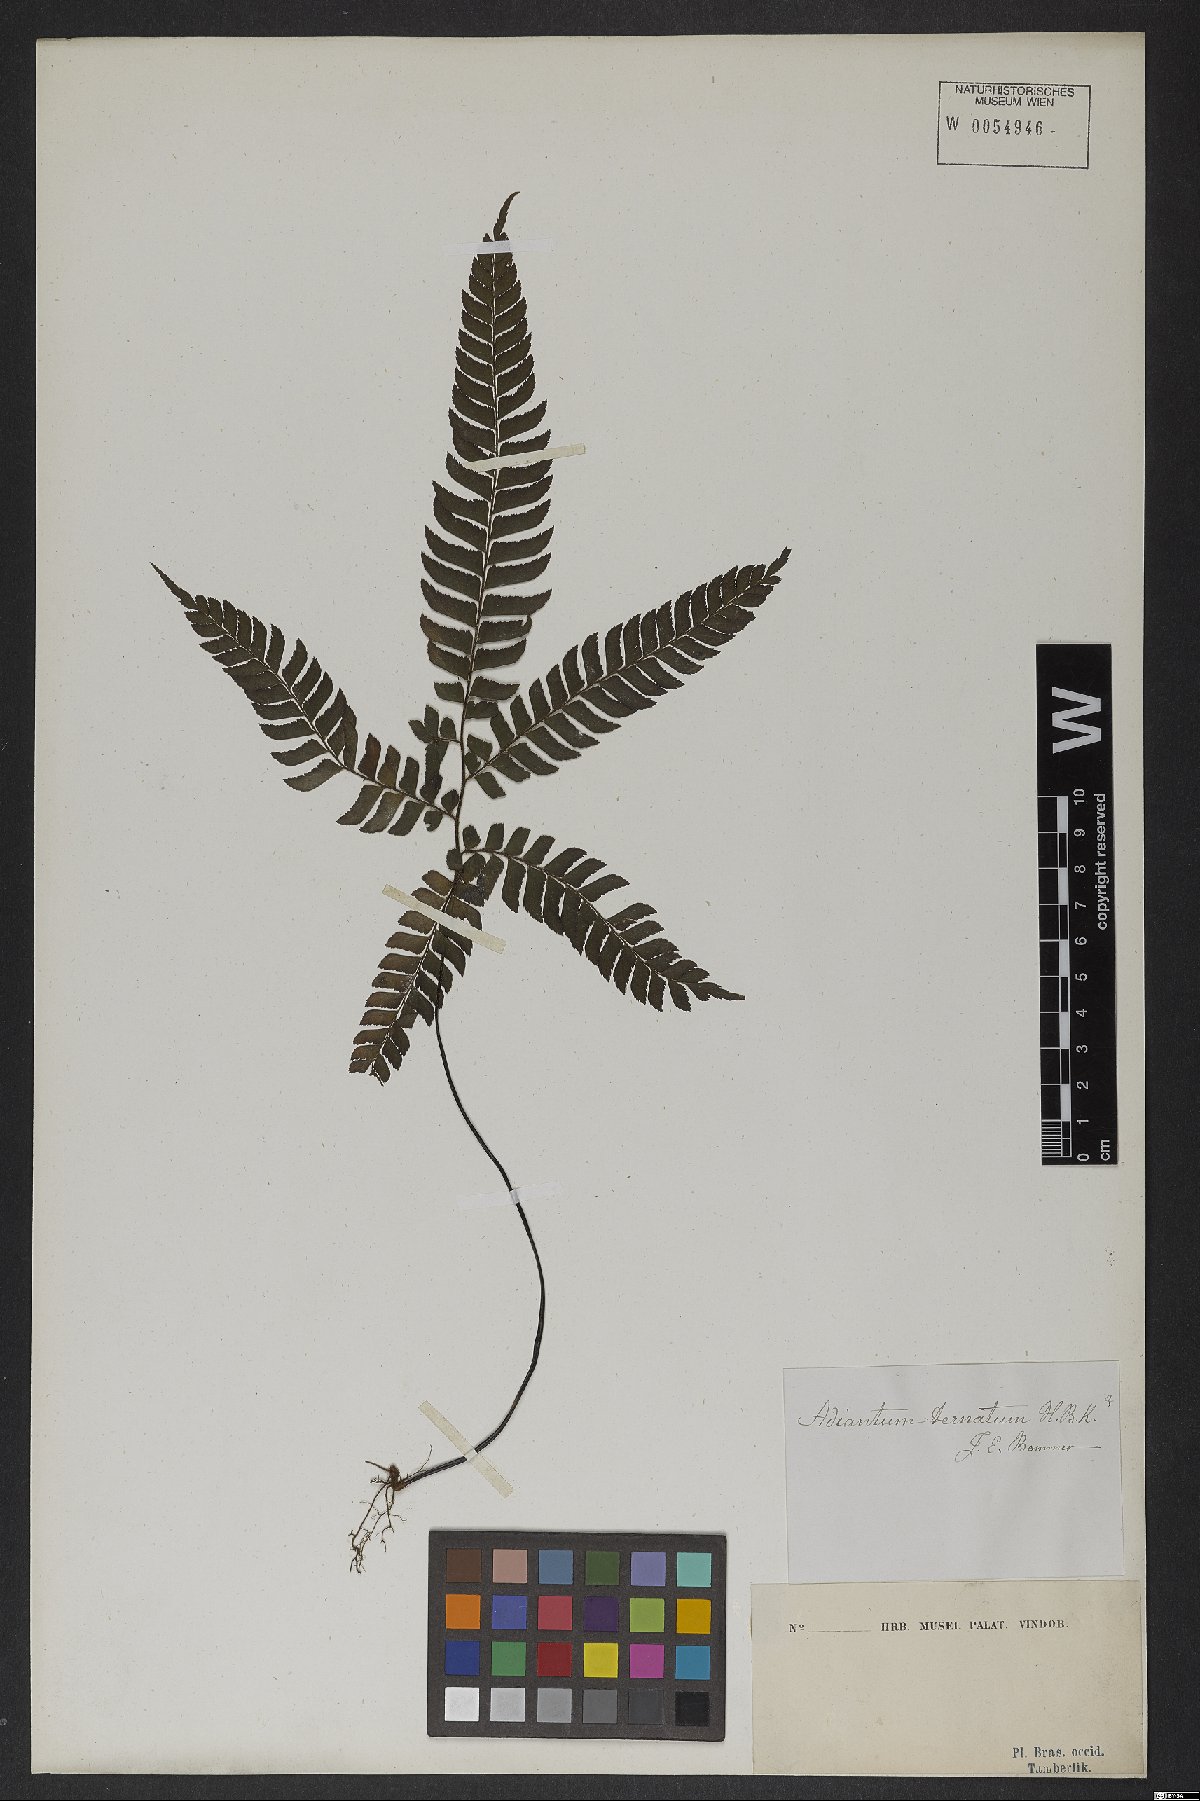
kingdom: Plantae
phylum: Tracheophyta
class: Polypodiopsida
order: Polypodiales
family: Pteridaceae
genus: Adiantum
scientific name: Adiantum tetraphyllum
